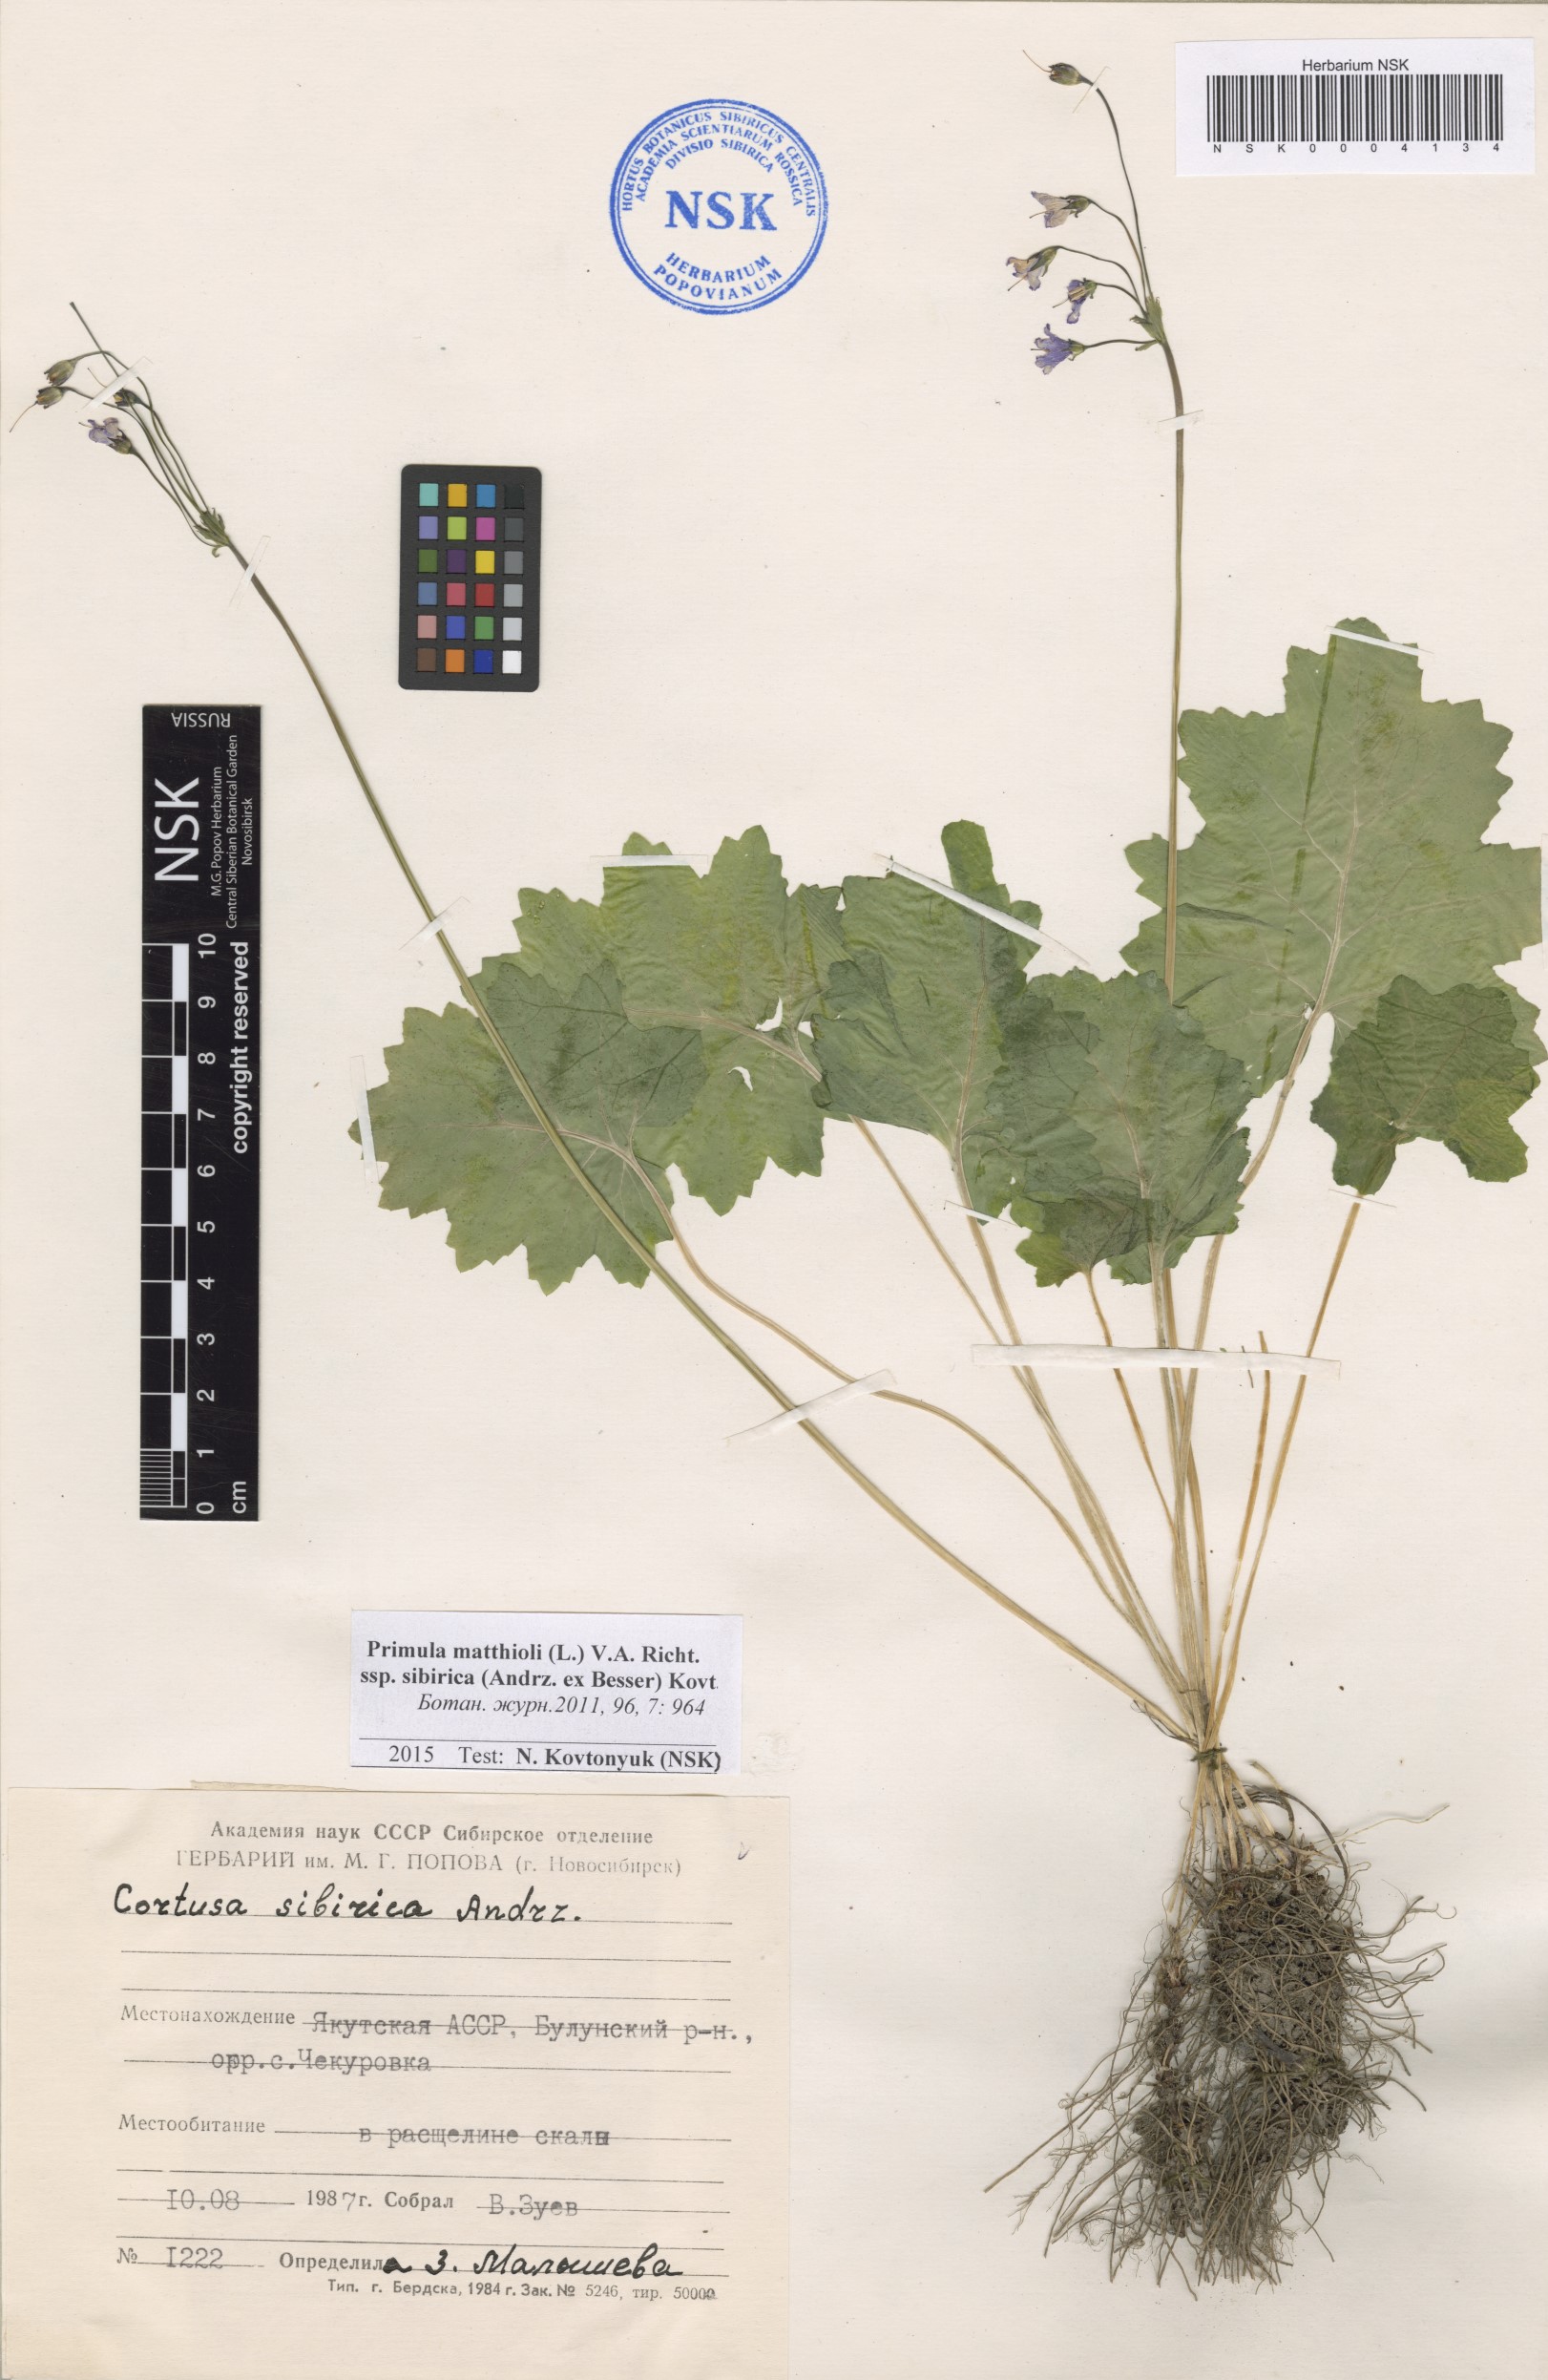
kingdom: Plantae
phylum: Tracheophyta
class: Magnoliopsida
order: Ericales
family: Primulaceae
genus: Primula
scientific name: Primula matthioli
